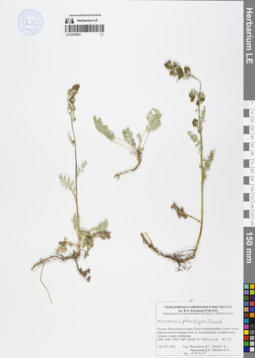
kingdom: Plantae
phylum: Tracheophyta
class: Magnoliopsida
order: Asterales
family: Asteraceae
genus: Artemisia
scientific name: Artemisia phaeolepis
